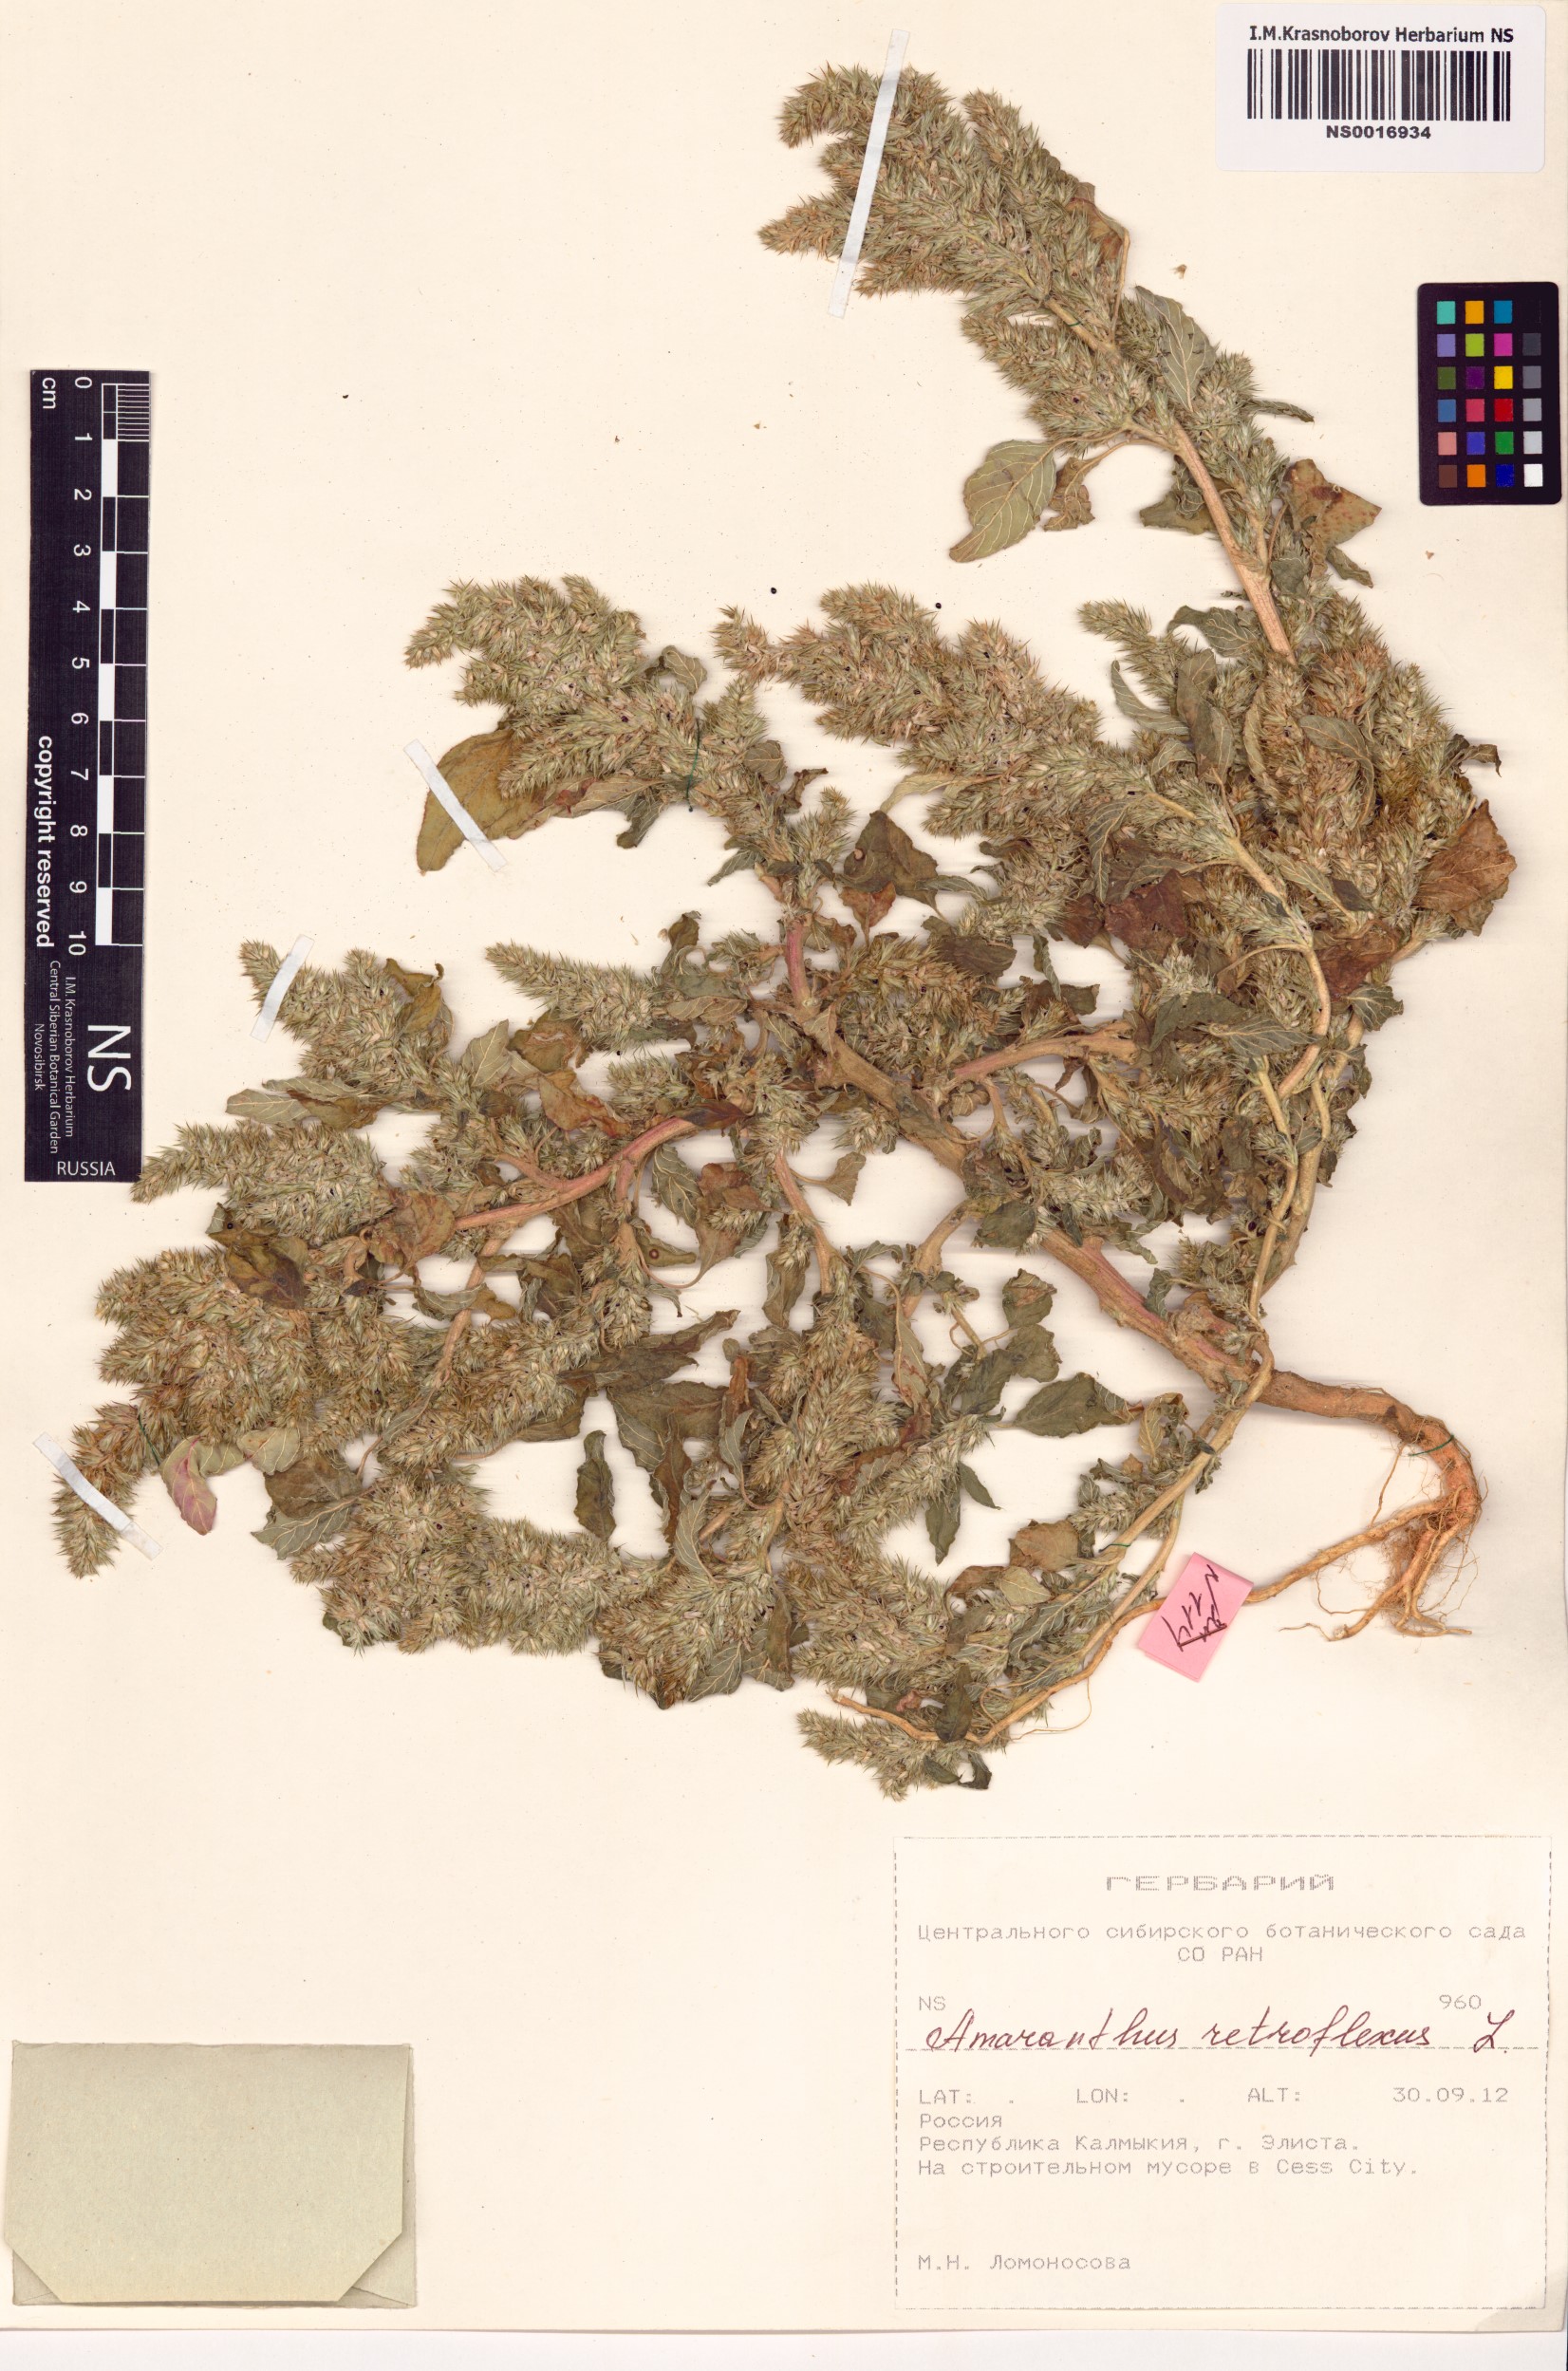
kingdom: Plantae
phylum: Tracheophyta
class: Magnoliopsida
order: Caryophyllales
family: Amaranthaceae
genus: Amaranthus
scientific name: Amaranthus retroflexus
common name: Redroot amaranth
